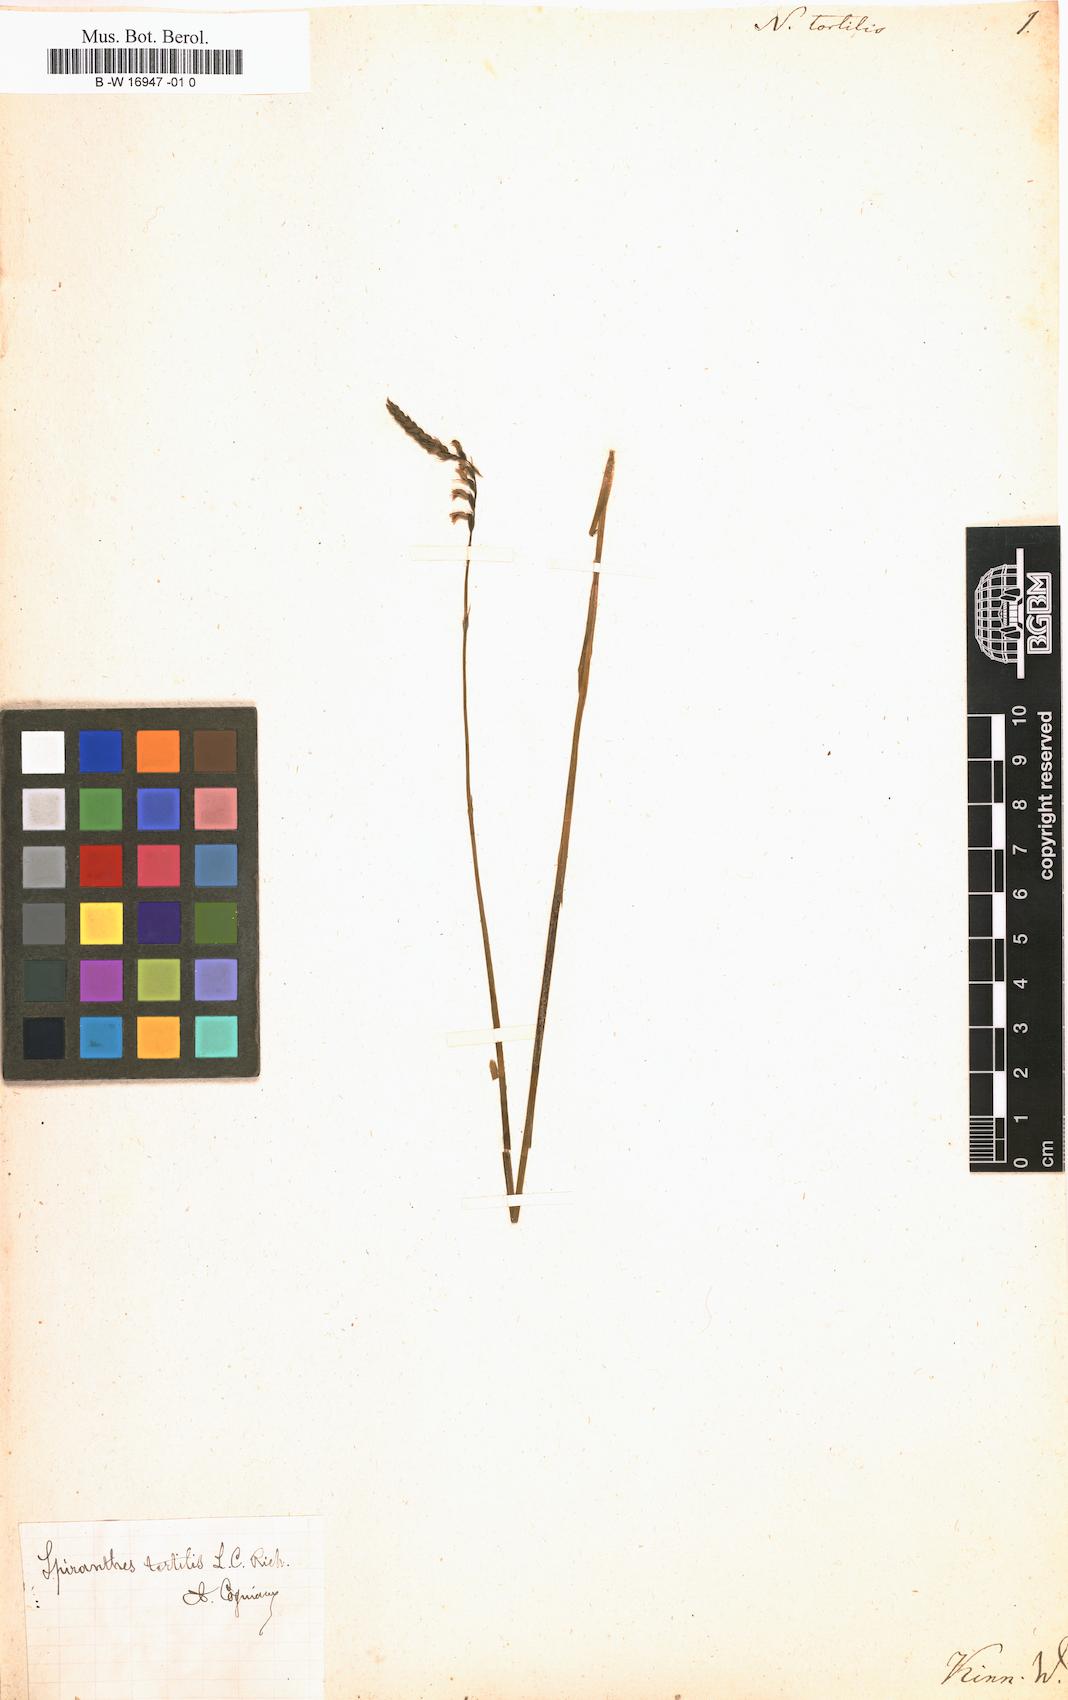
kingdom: Plantae
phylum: Tracheophyta
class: Liliopsida
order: Asparagales
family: Orchidaceae
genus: Spiranthes
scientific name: Spiranthes
